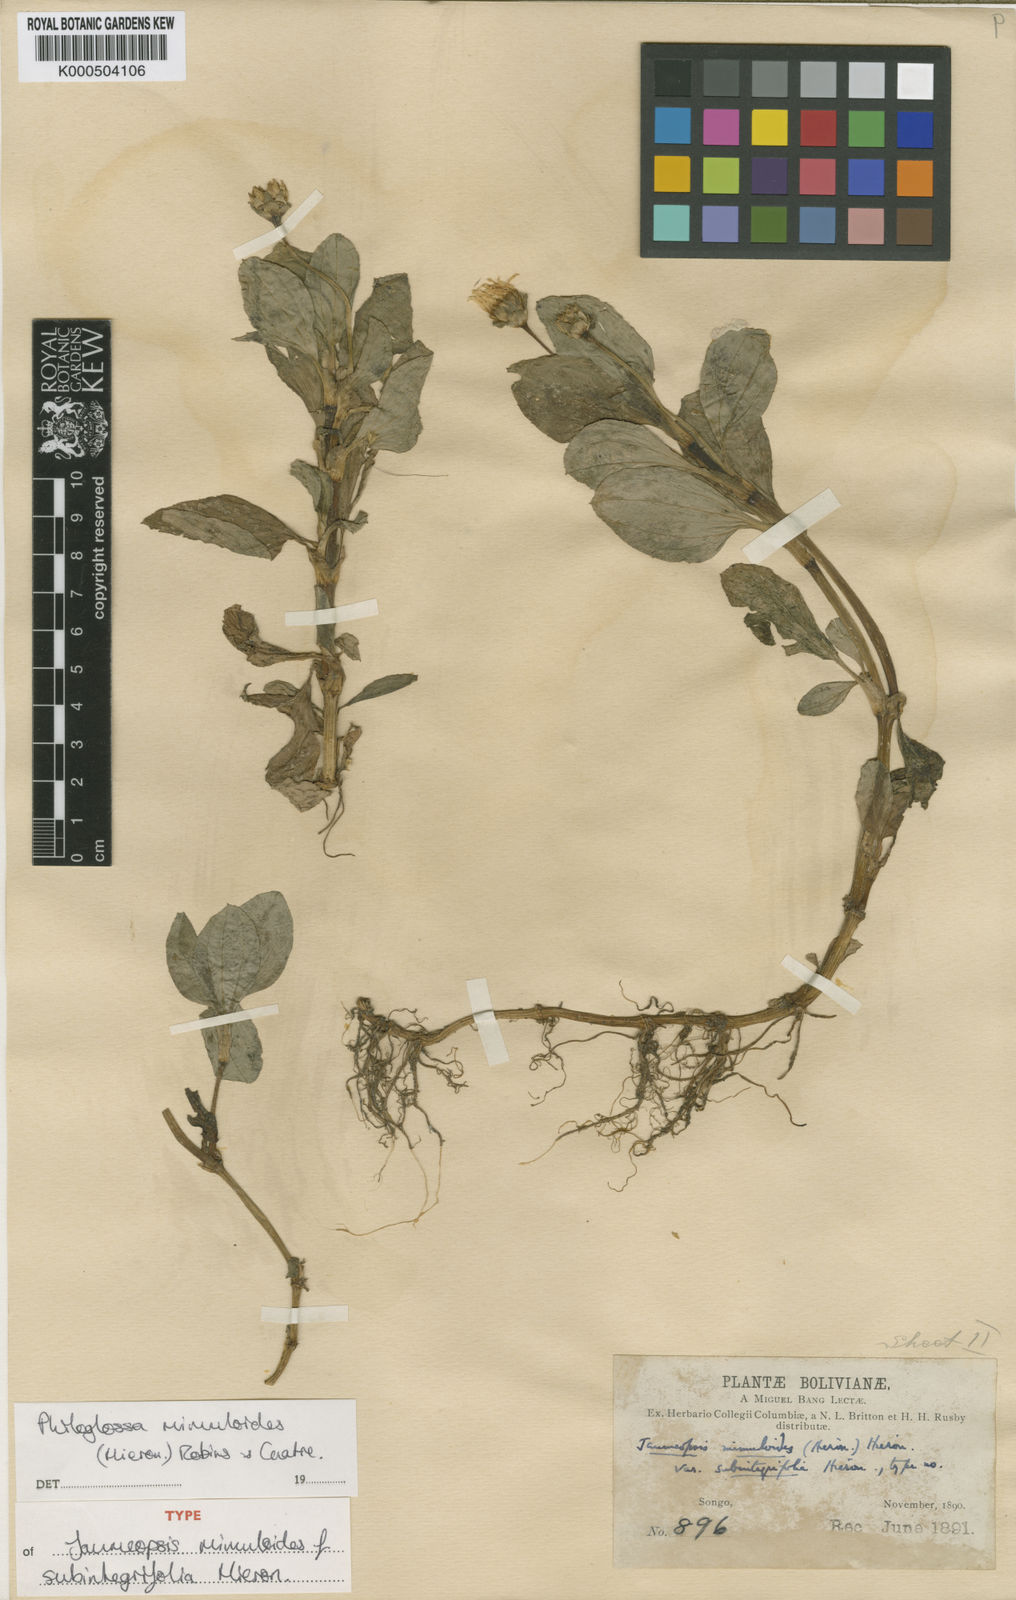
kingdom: Plantae
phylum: Tracheophyta
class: Magnoliopsida
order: Asterales
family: Asteraceae
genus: Philoglossa
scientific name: Philoglossa mimuloides
